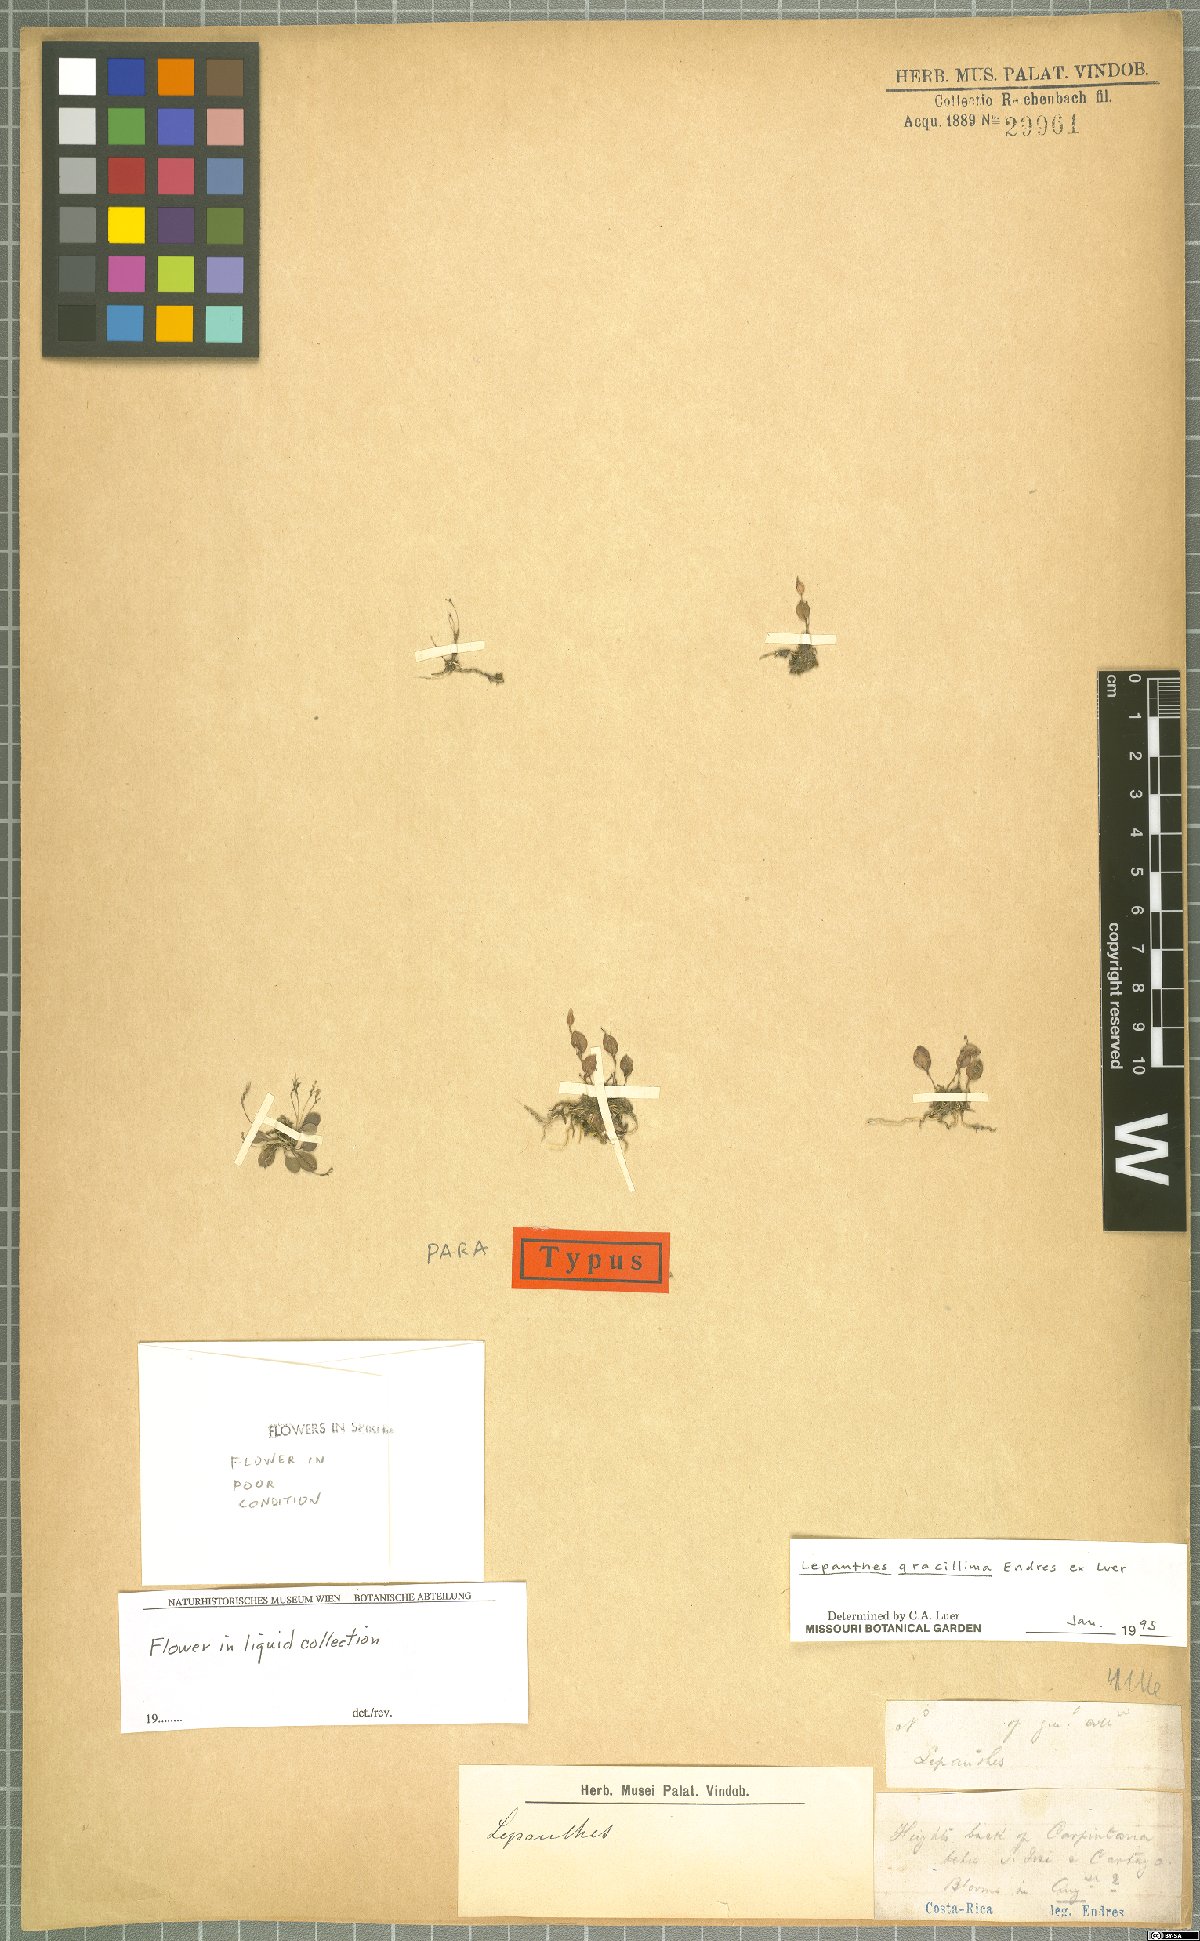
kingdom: Plantae
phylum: Tracheophyta
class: Liliopsida
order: Asparagales
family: Orchidaceae
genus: Lepanthes
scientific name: Lepanthes gracillima
